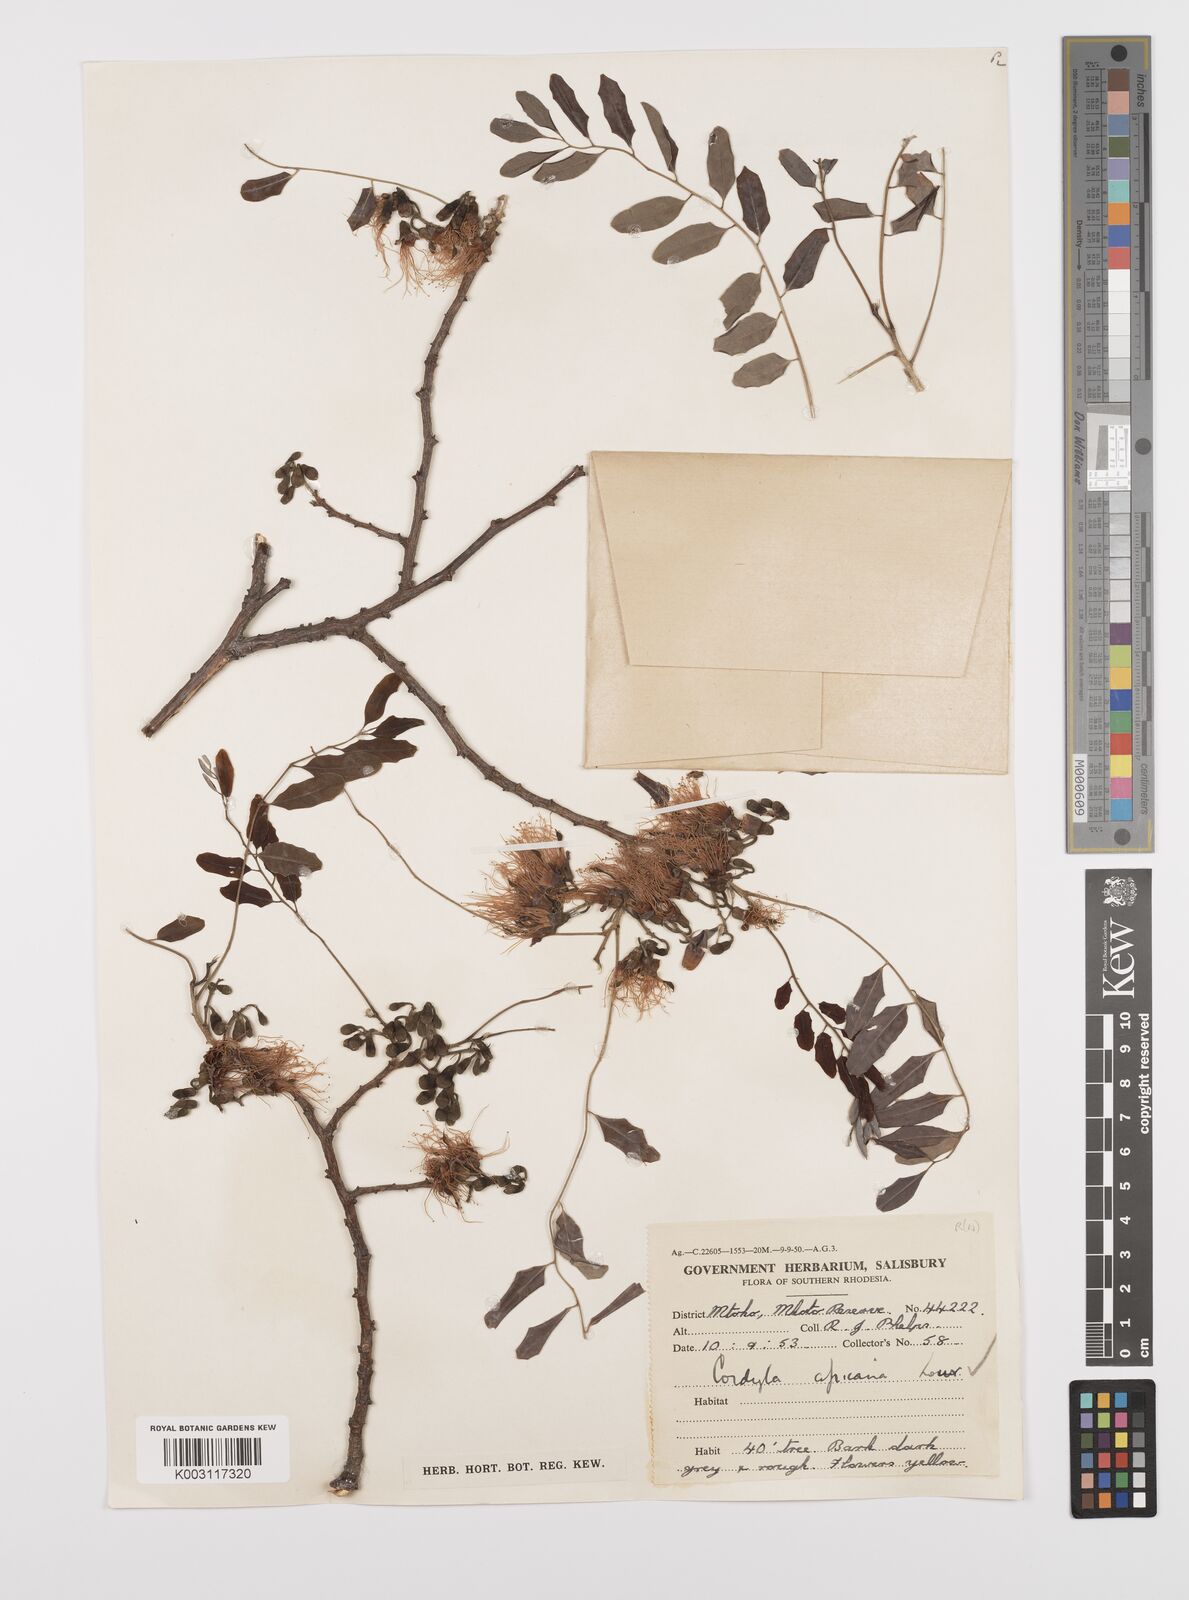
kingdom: Plantae
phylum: Tracheophyta
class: Magnoliopsida
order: Fabales
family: Fabaceae
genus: Cordyla
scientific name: Cordyla africana
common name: Wild mango
